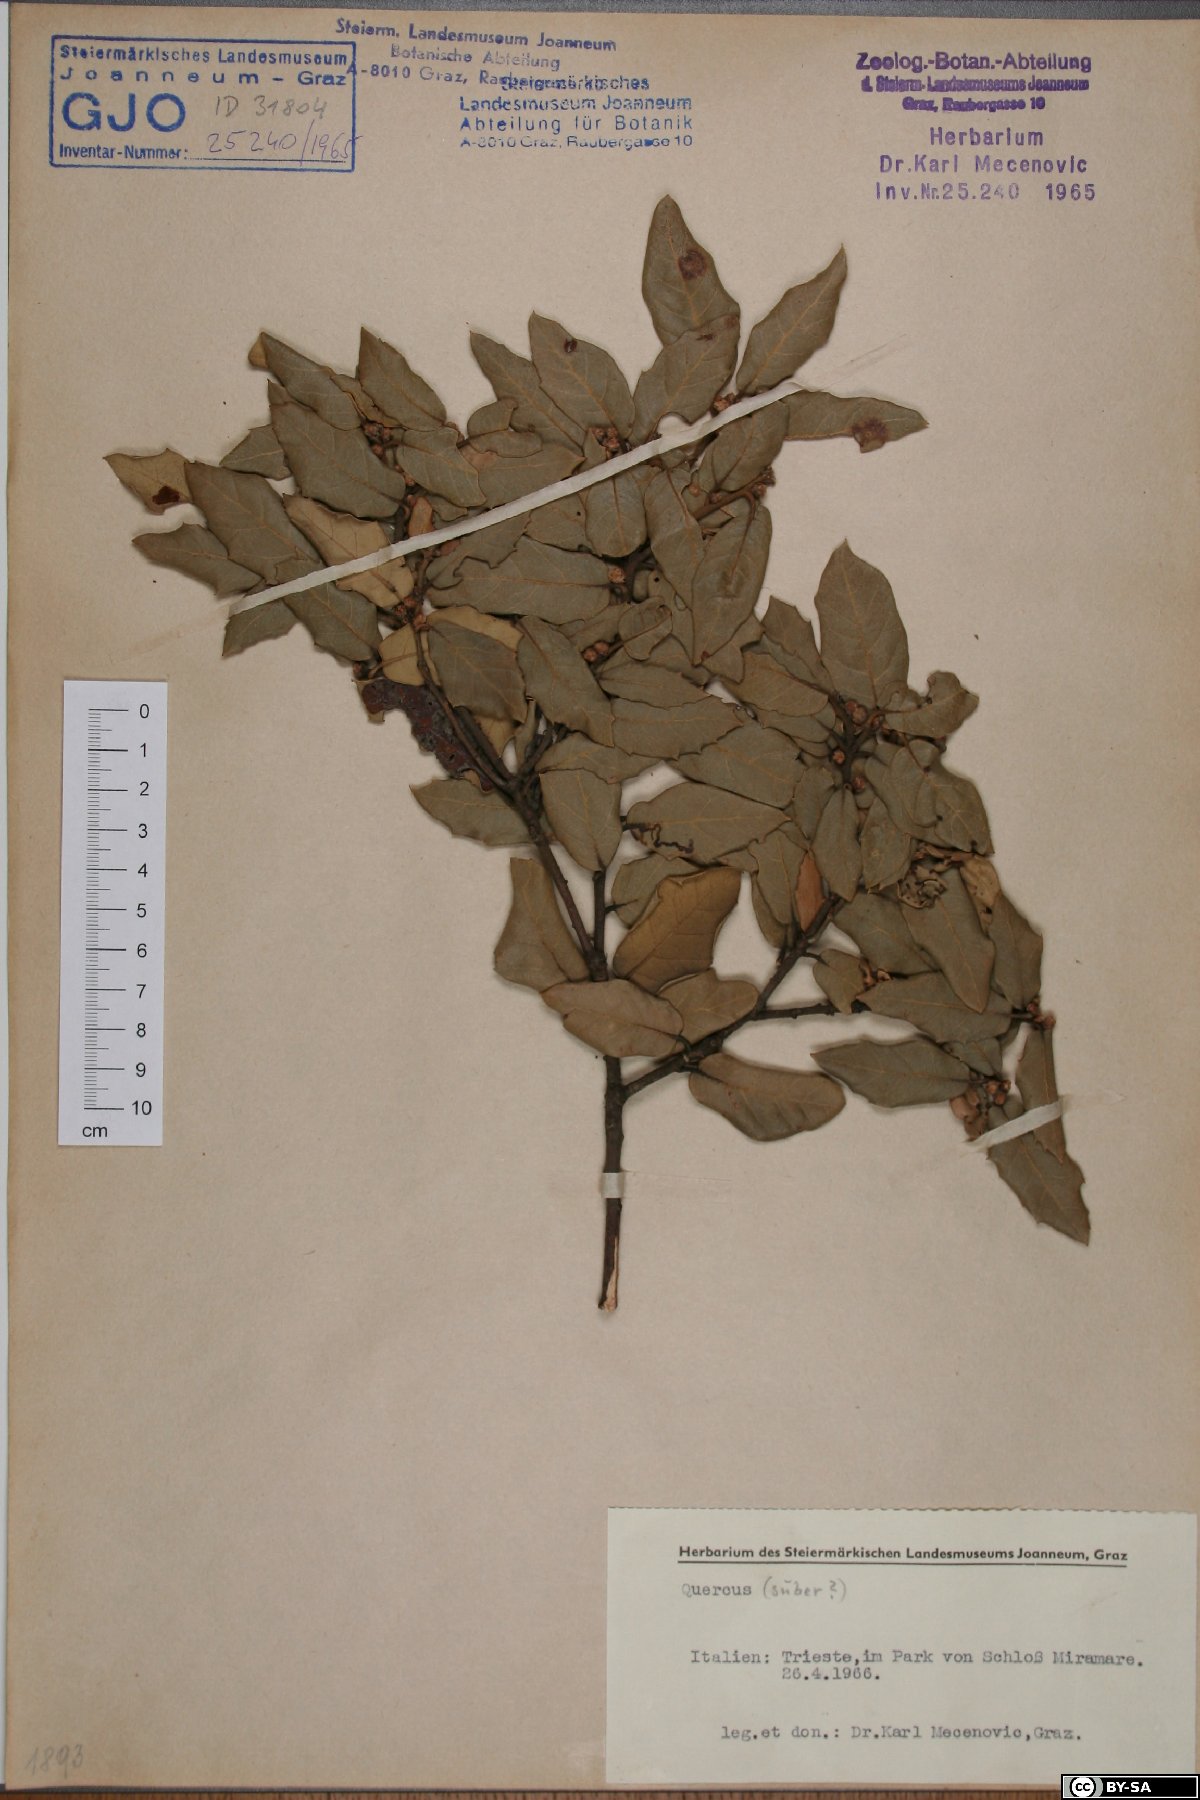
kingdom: Plantae
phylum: Tracheophyta
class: Magnoliopsida
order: Fagales
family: Fagaceae
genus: Quercus
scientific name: Quercus suber
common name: Cork oak
